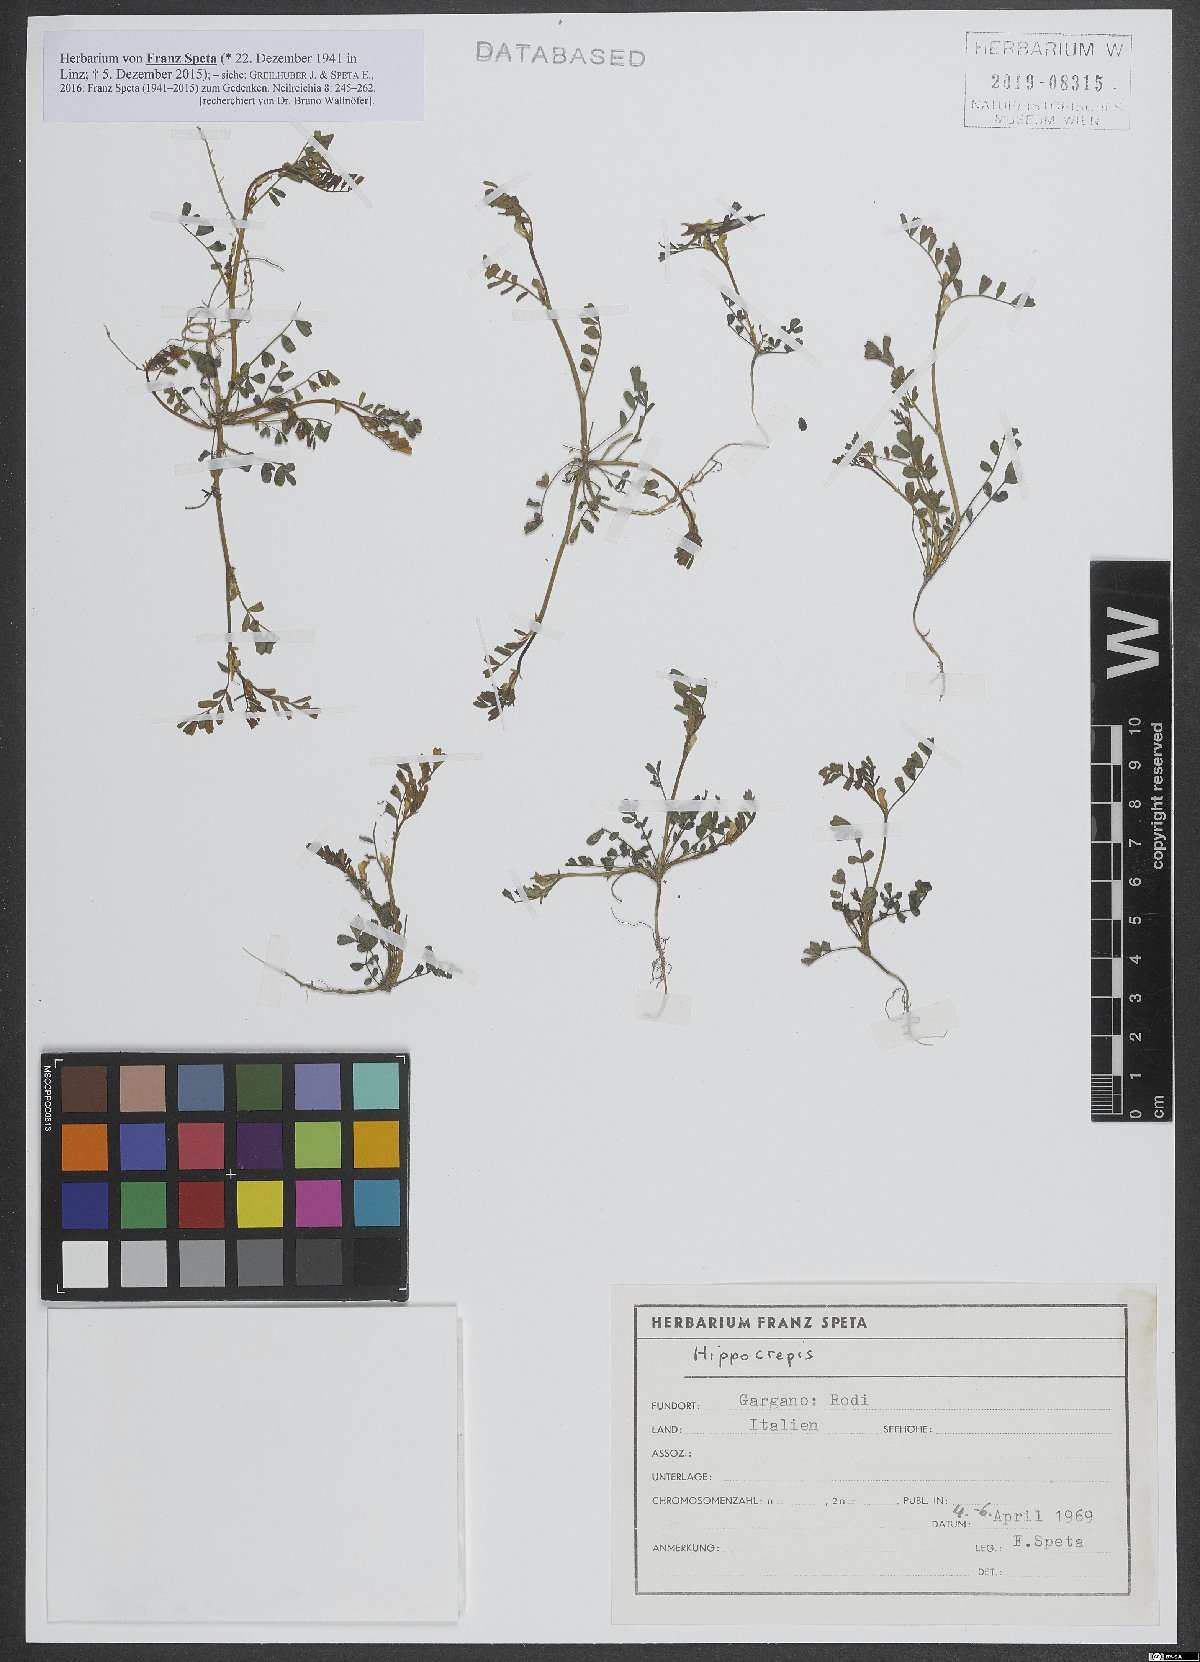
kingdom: Plantae
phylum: Tracheophyta
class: Magnoliopsida
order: Fabales
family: Fabaceae
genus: Hippocrepis
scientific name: Hippocrepis
